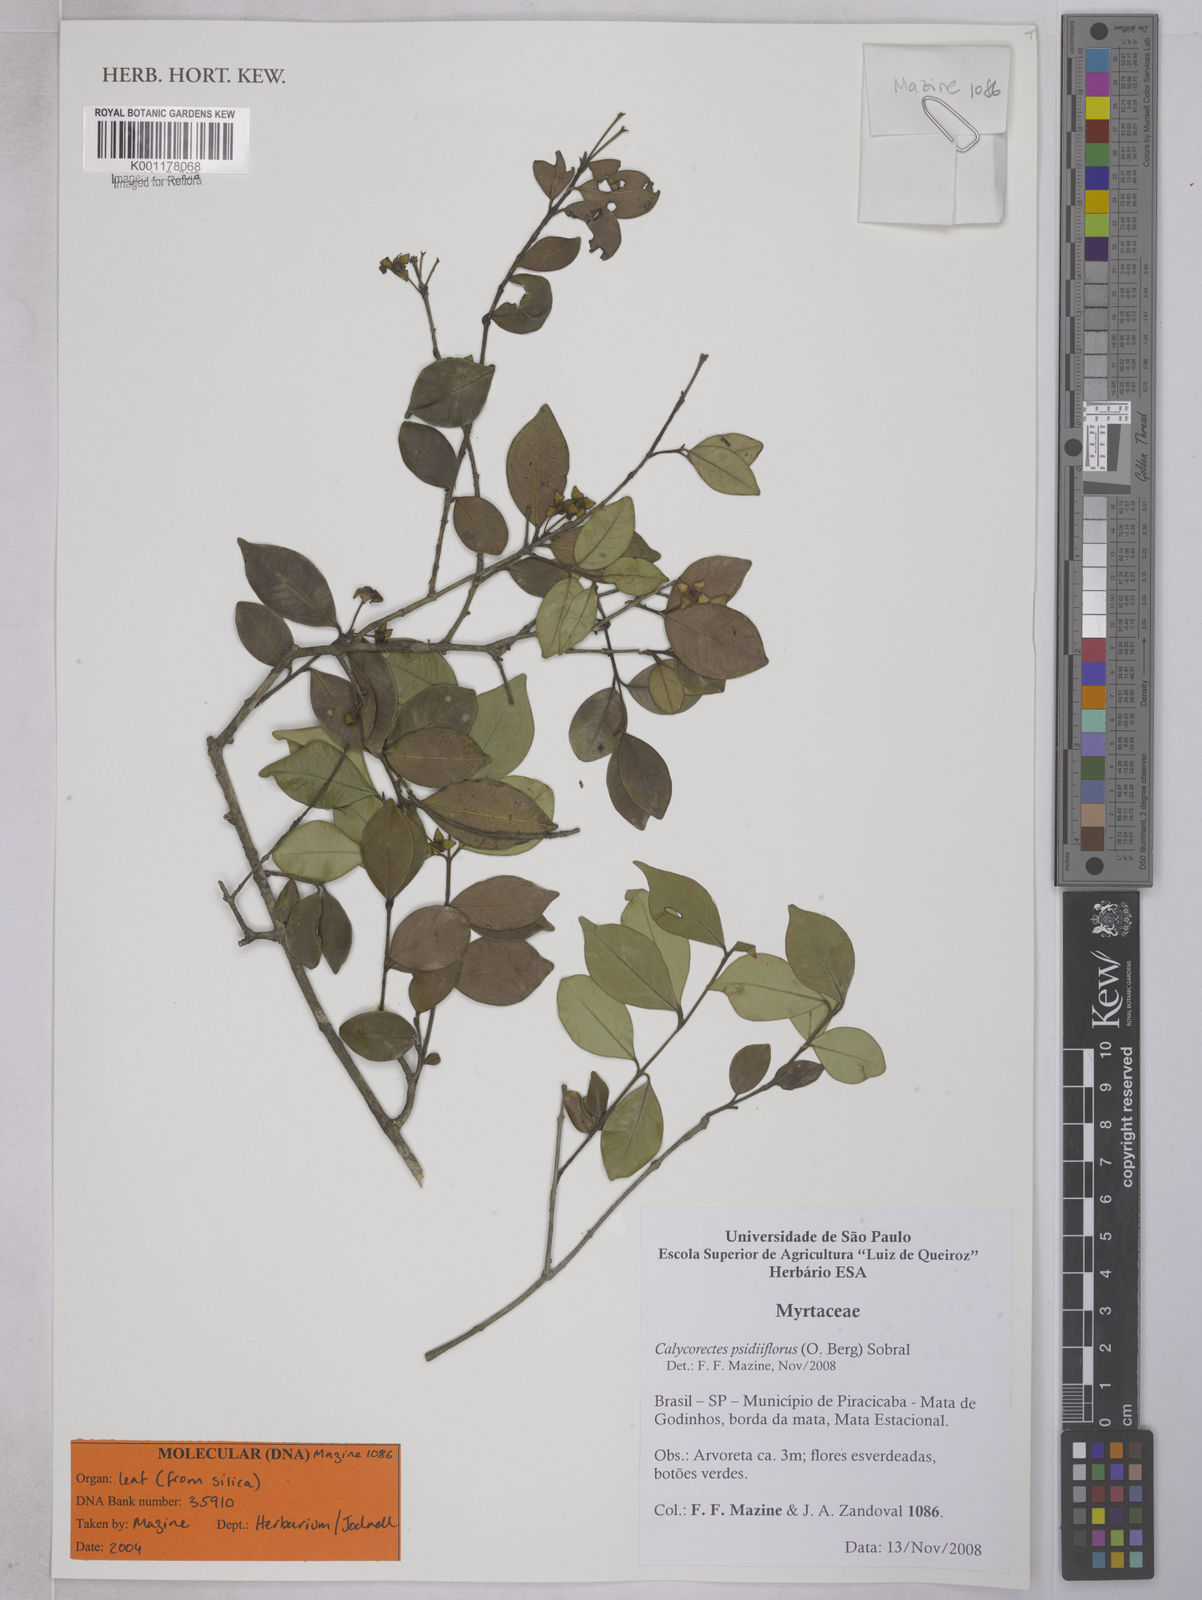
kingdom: Plantae
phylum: Tracheophyta
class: Magnoliopsida
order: Myrtales
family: Myrtaceae
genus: Eugenia
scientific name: Eugenia subterminalis
